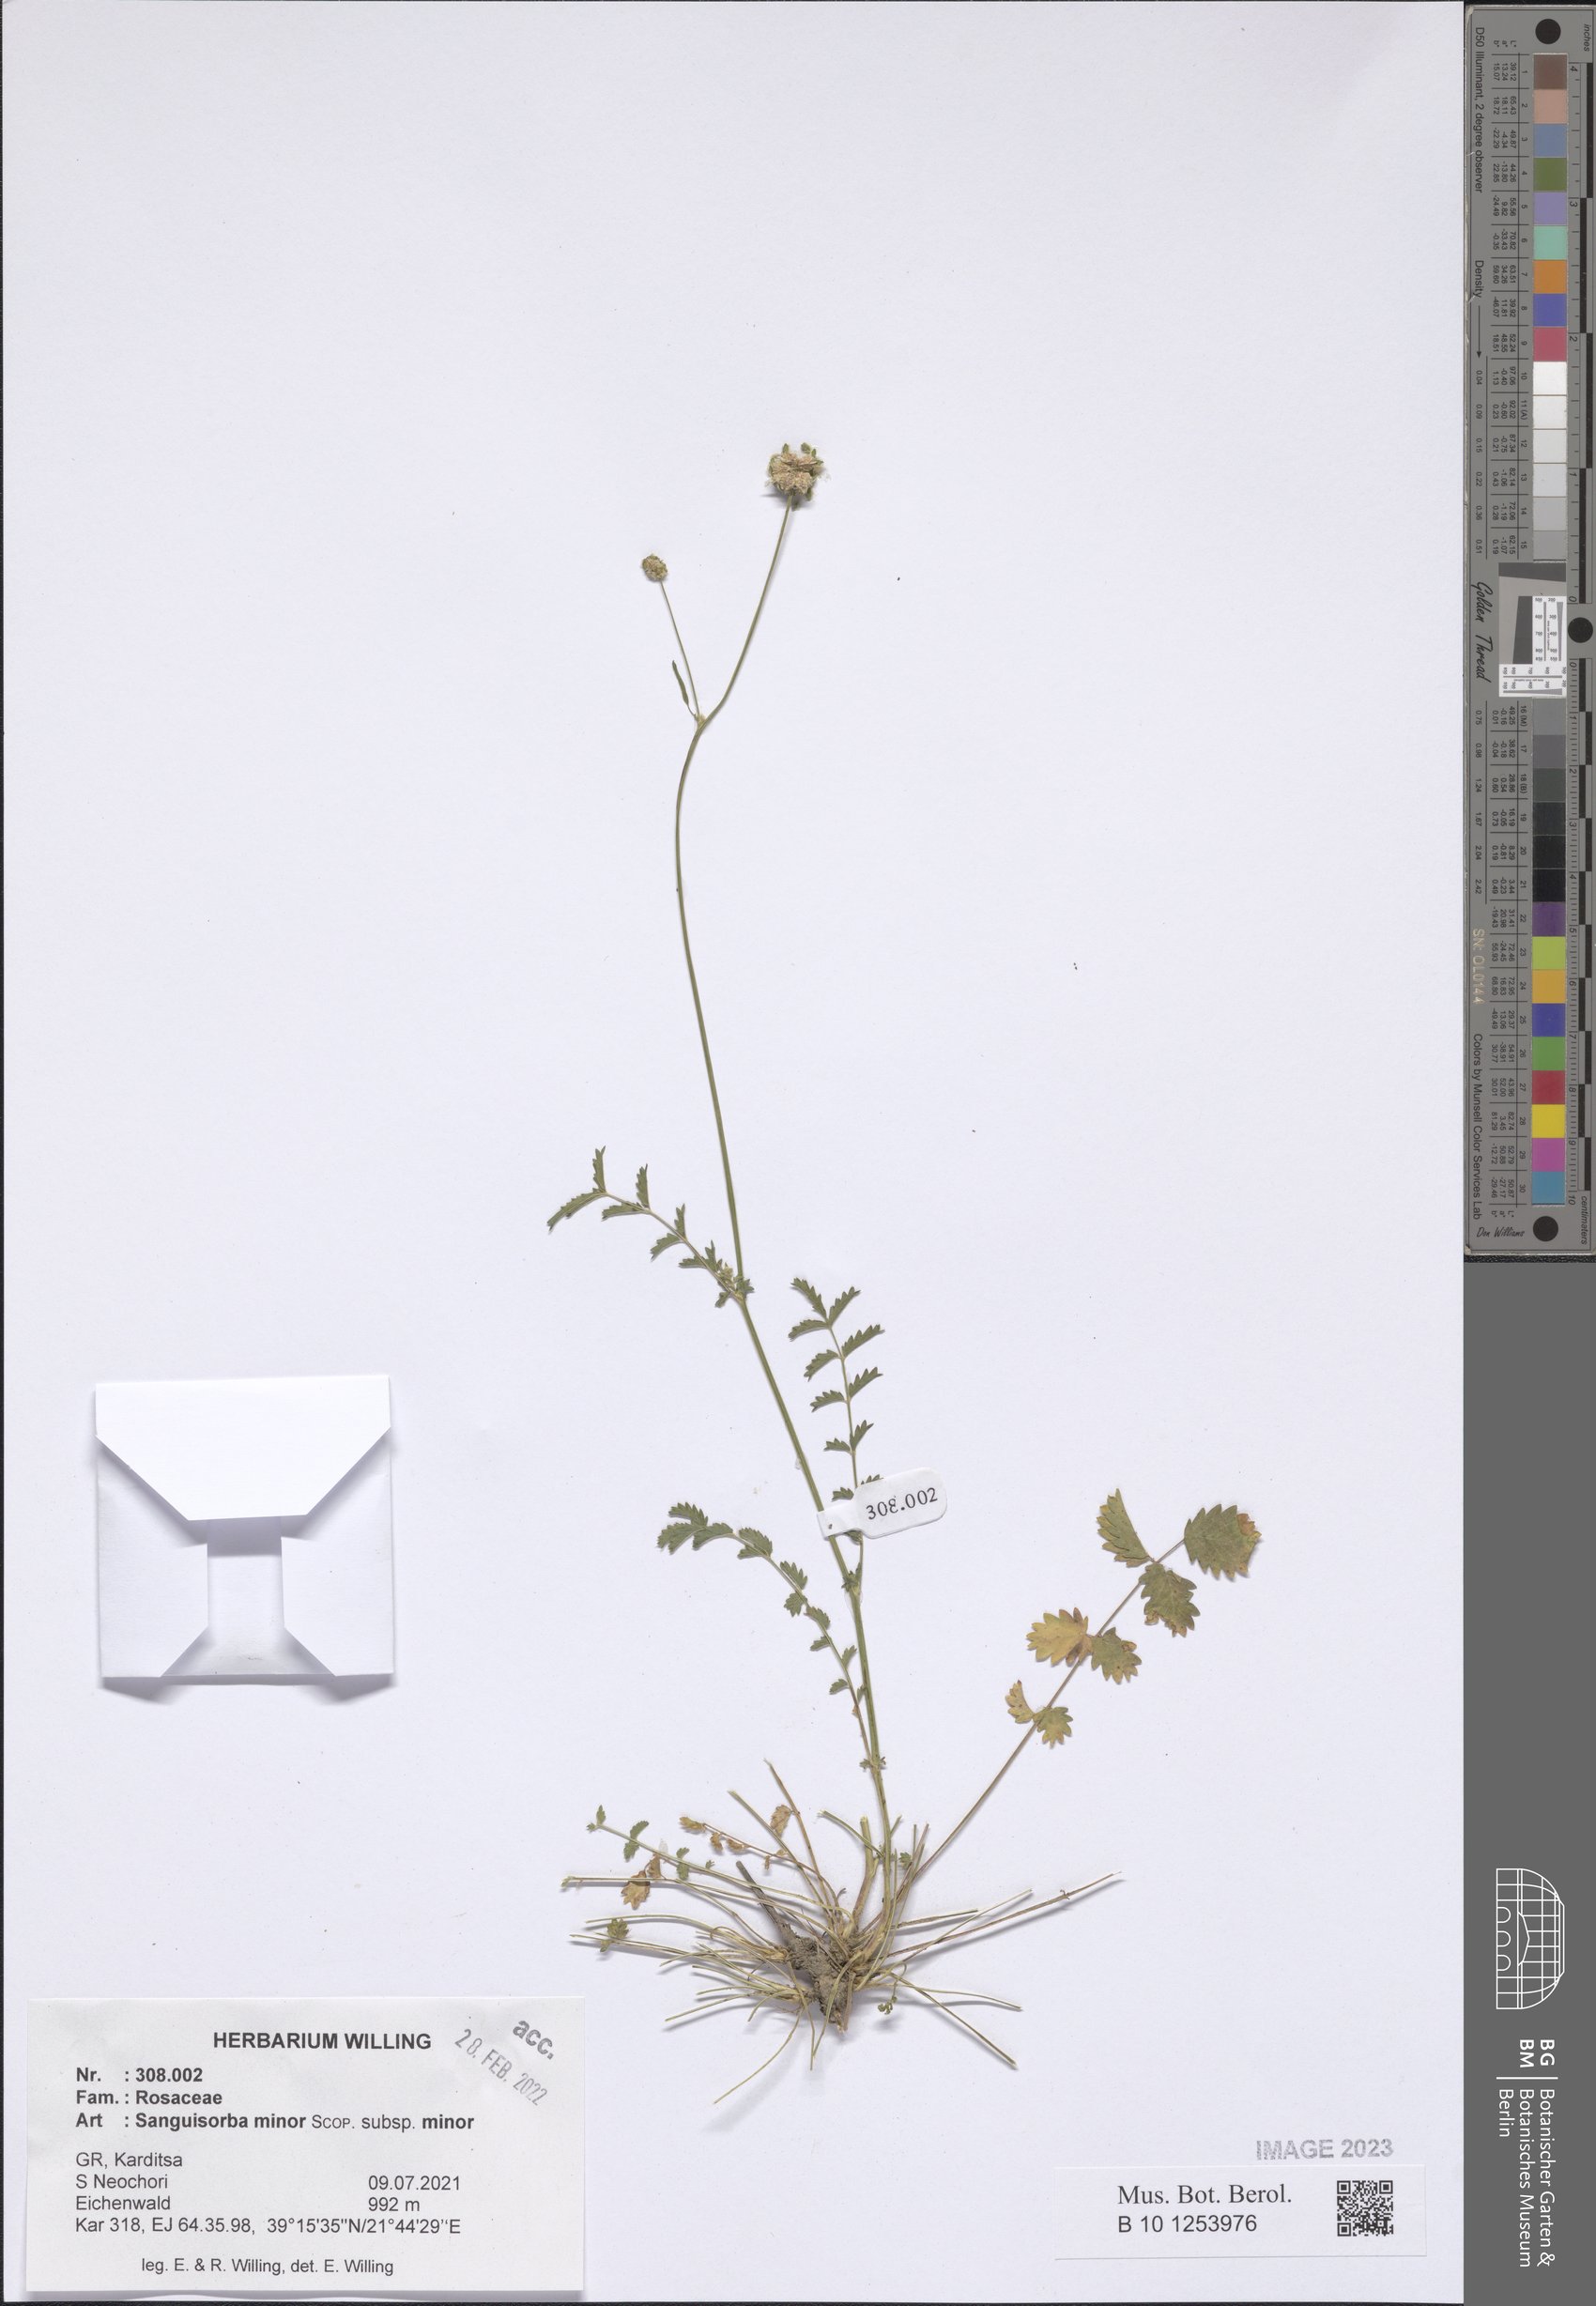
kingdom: Plantae
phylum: Tracheophyta
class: Magnoliopsida
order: Rosales
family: Rosaceae
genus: Poterium
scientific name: Poterium sanguisorba
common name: Salad burnet
